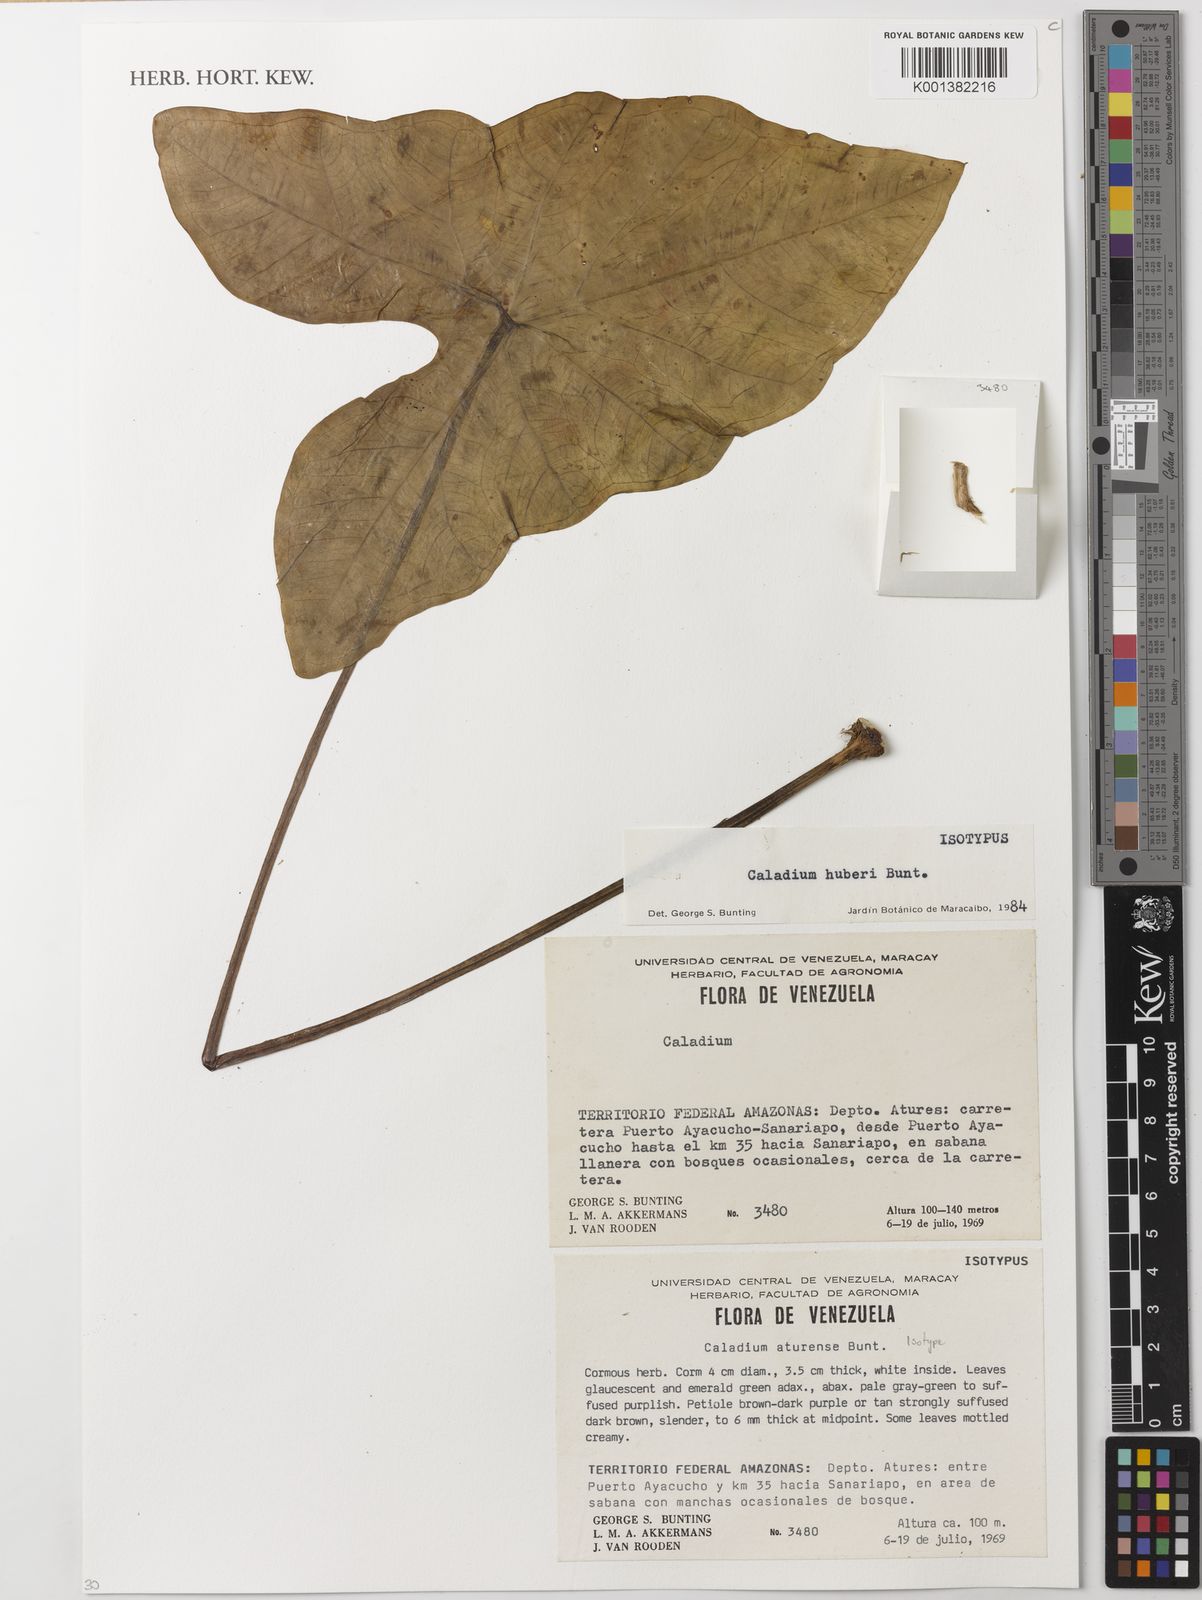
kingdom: Plantae
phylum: Tracheophyta
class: Liliopsida
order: Alismatales
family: Araceae
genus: Caladium
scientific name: Caladium picturatum
